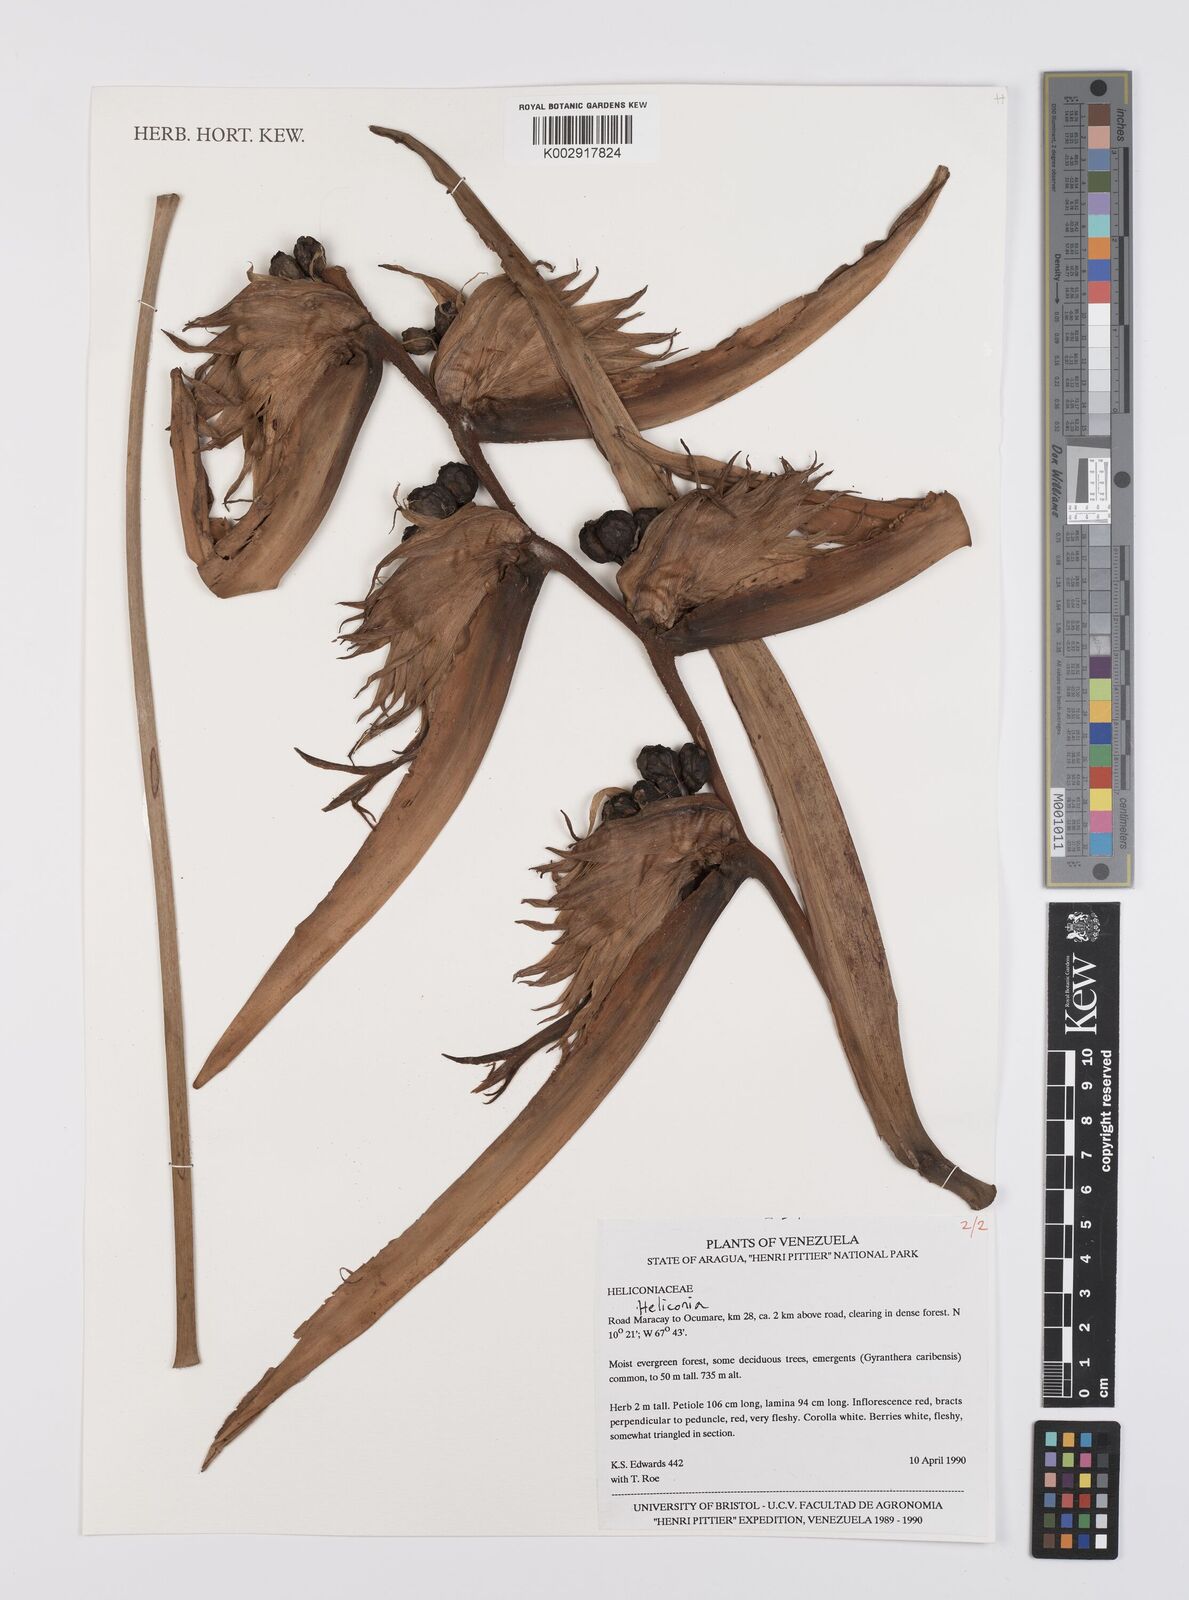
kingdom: Plantae
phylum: Tracheophyta
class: Liliopsida
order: Zingiberales
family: Heliconiaceae
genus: Heliconia
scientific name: Heliconia
